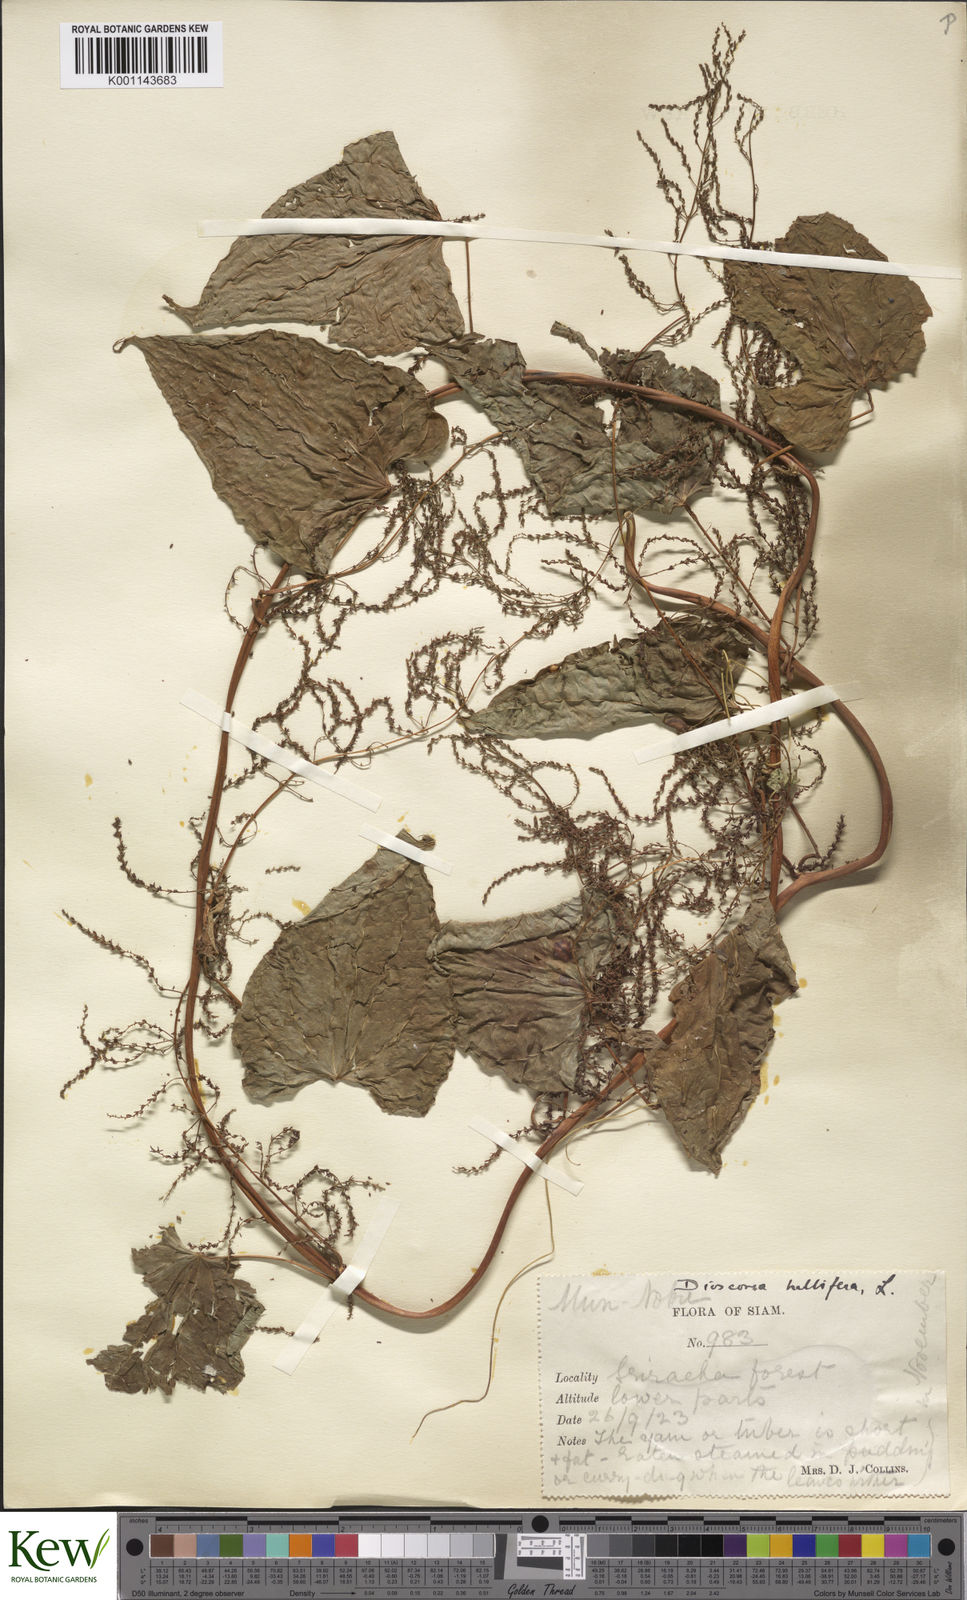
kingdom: Plantae
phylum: Tracheophyta
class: Liliopsida
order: Dioscoreales
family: Dioscoreaceae
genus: Dioscorea
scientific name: Dioscorea bulbifera
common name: Air yam
